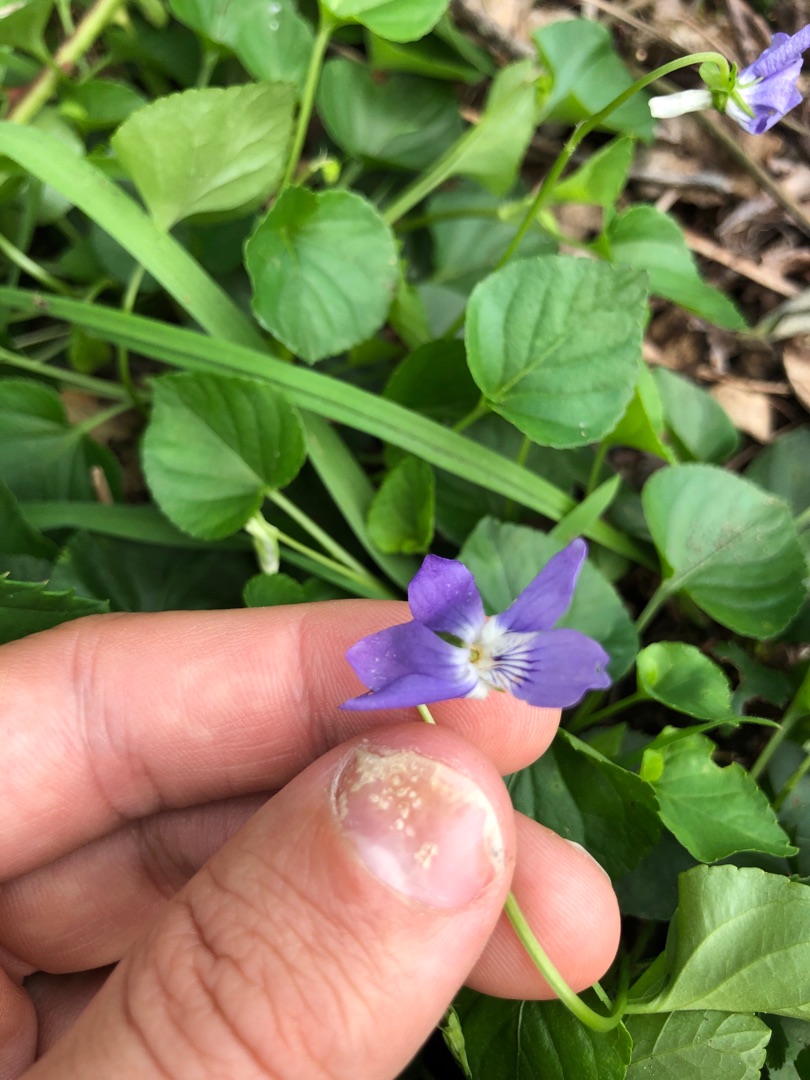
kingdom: Plantae
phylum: Tracheophyta
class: Magnoliopsida
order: Malpighiales
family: Violaceae
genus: Viola
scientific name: Viola riviniana
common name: Krat-viol
